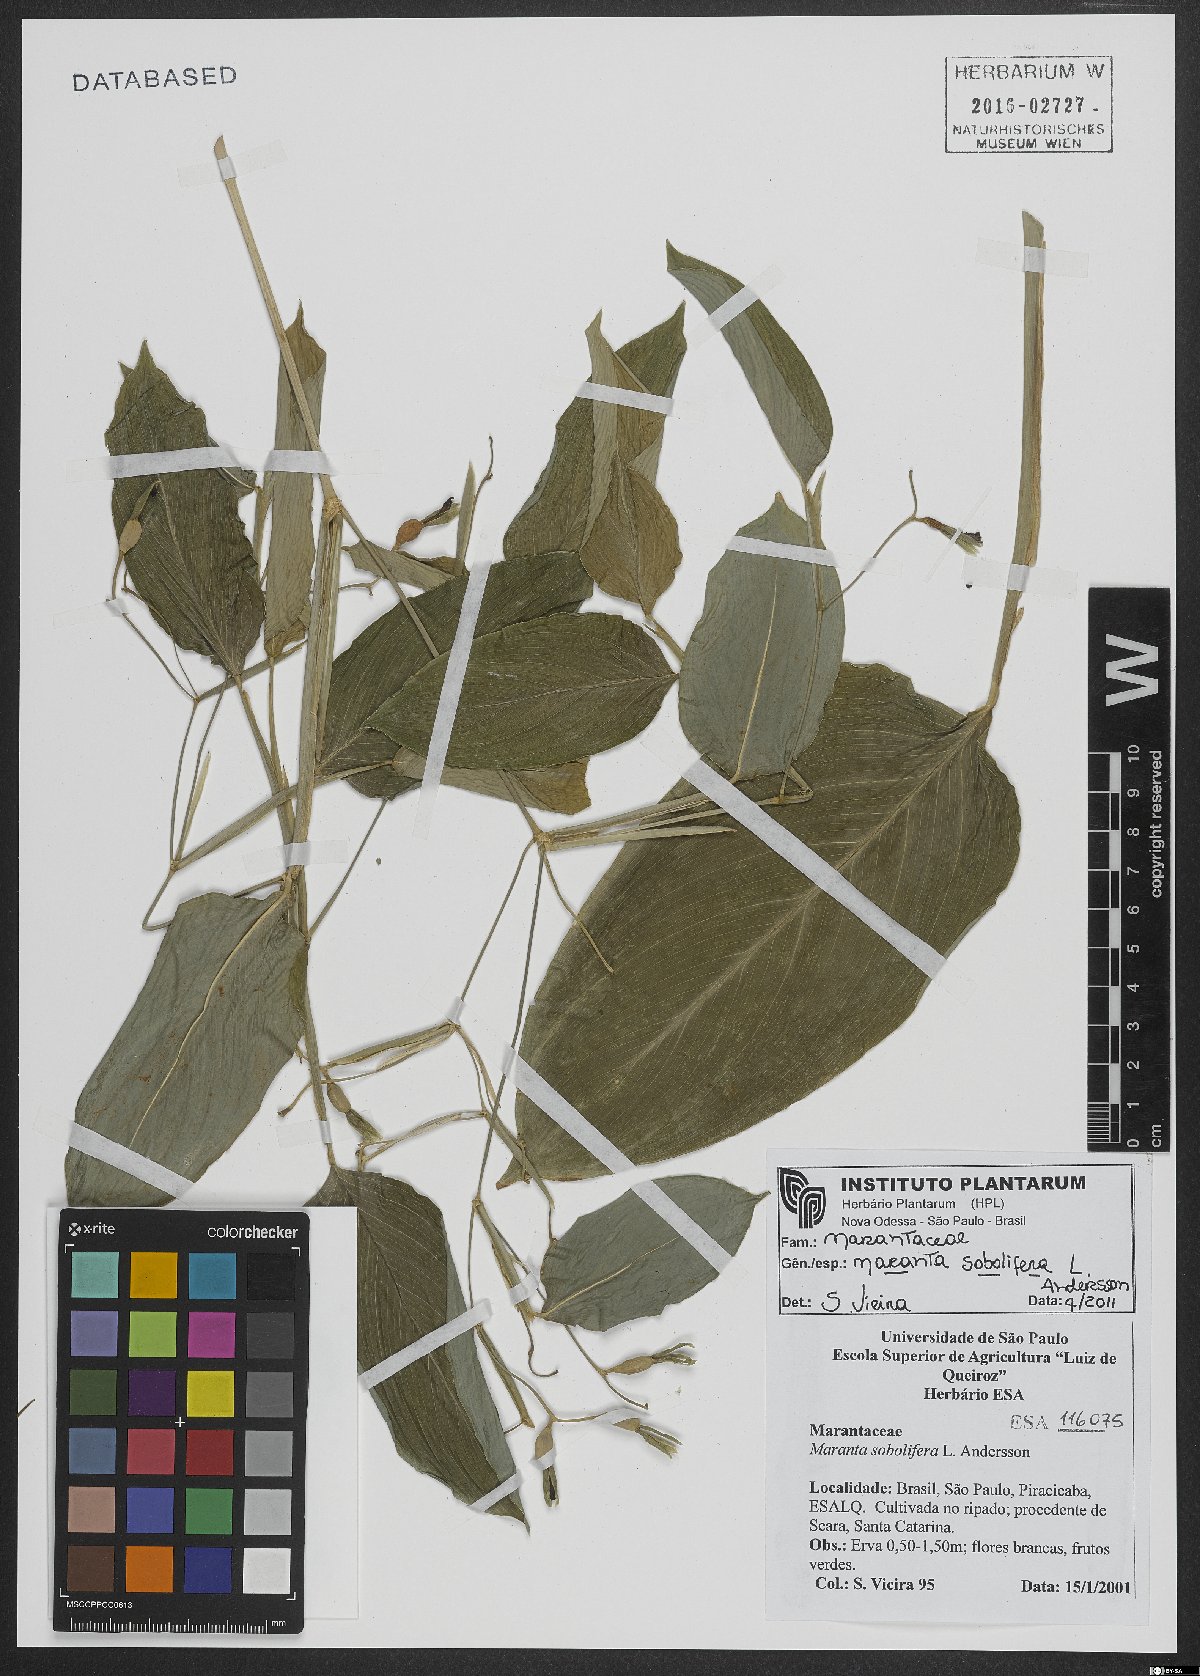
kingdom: Plantae
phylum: Tracheophyta
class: Liliopsida
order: Zingiberales
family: Marantaceae
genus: Maranta
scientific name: Maranta sobolifera
